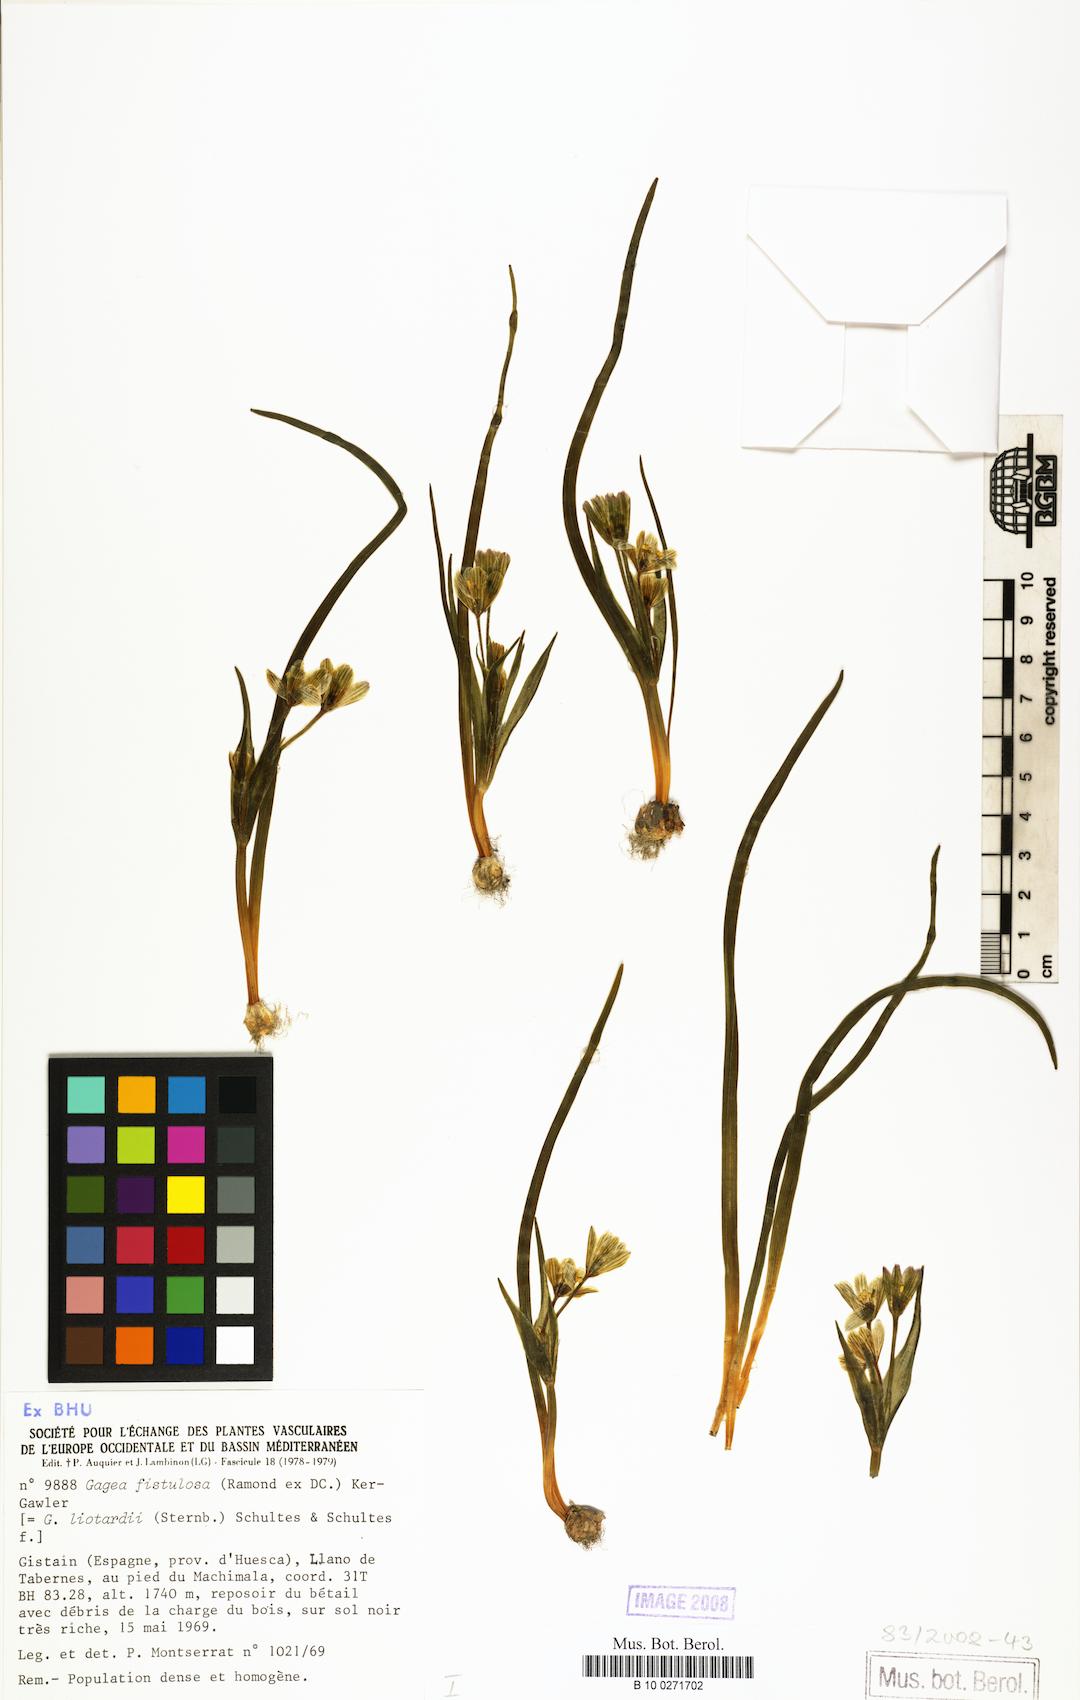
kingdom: Plantae
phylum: Tracheophyta
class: Liliopsida
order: Liliales
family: Liliaceae
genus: Gagea
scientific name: Gagea bohemica
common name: Early star-of-bethlehem
